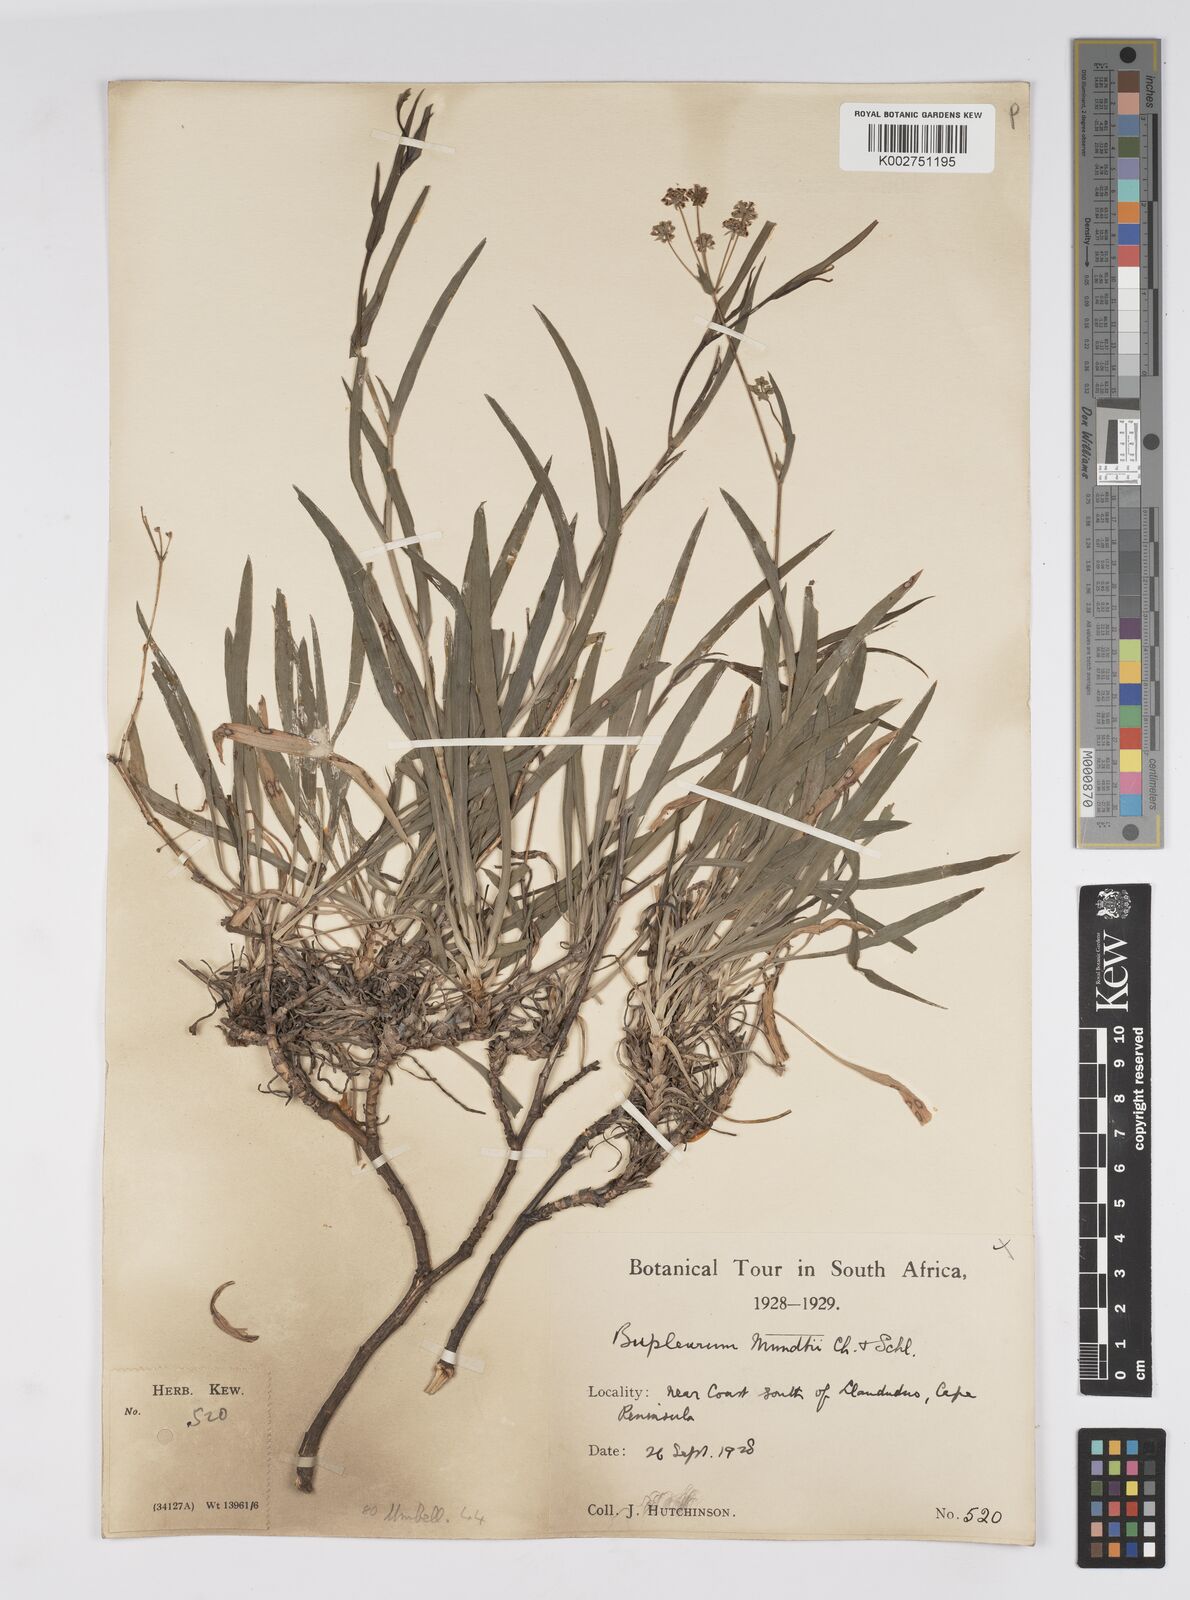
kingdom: Plantae
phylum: Tracheophyta
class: Magnoliopsida
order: Apiales
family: Apiaceae
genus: Bupleurum
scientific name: Bupleurum mundii
